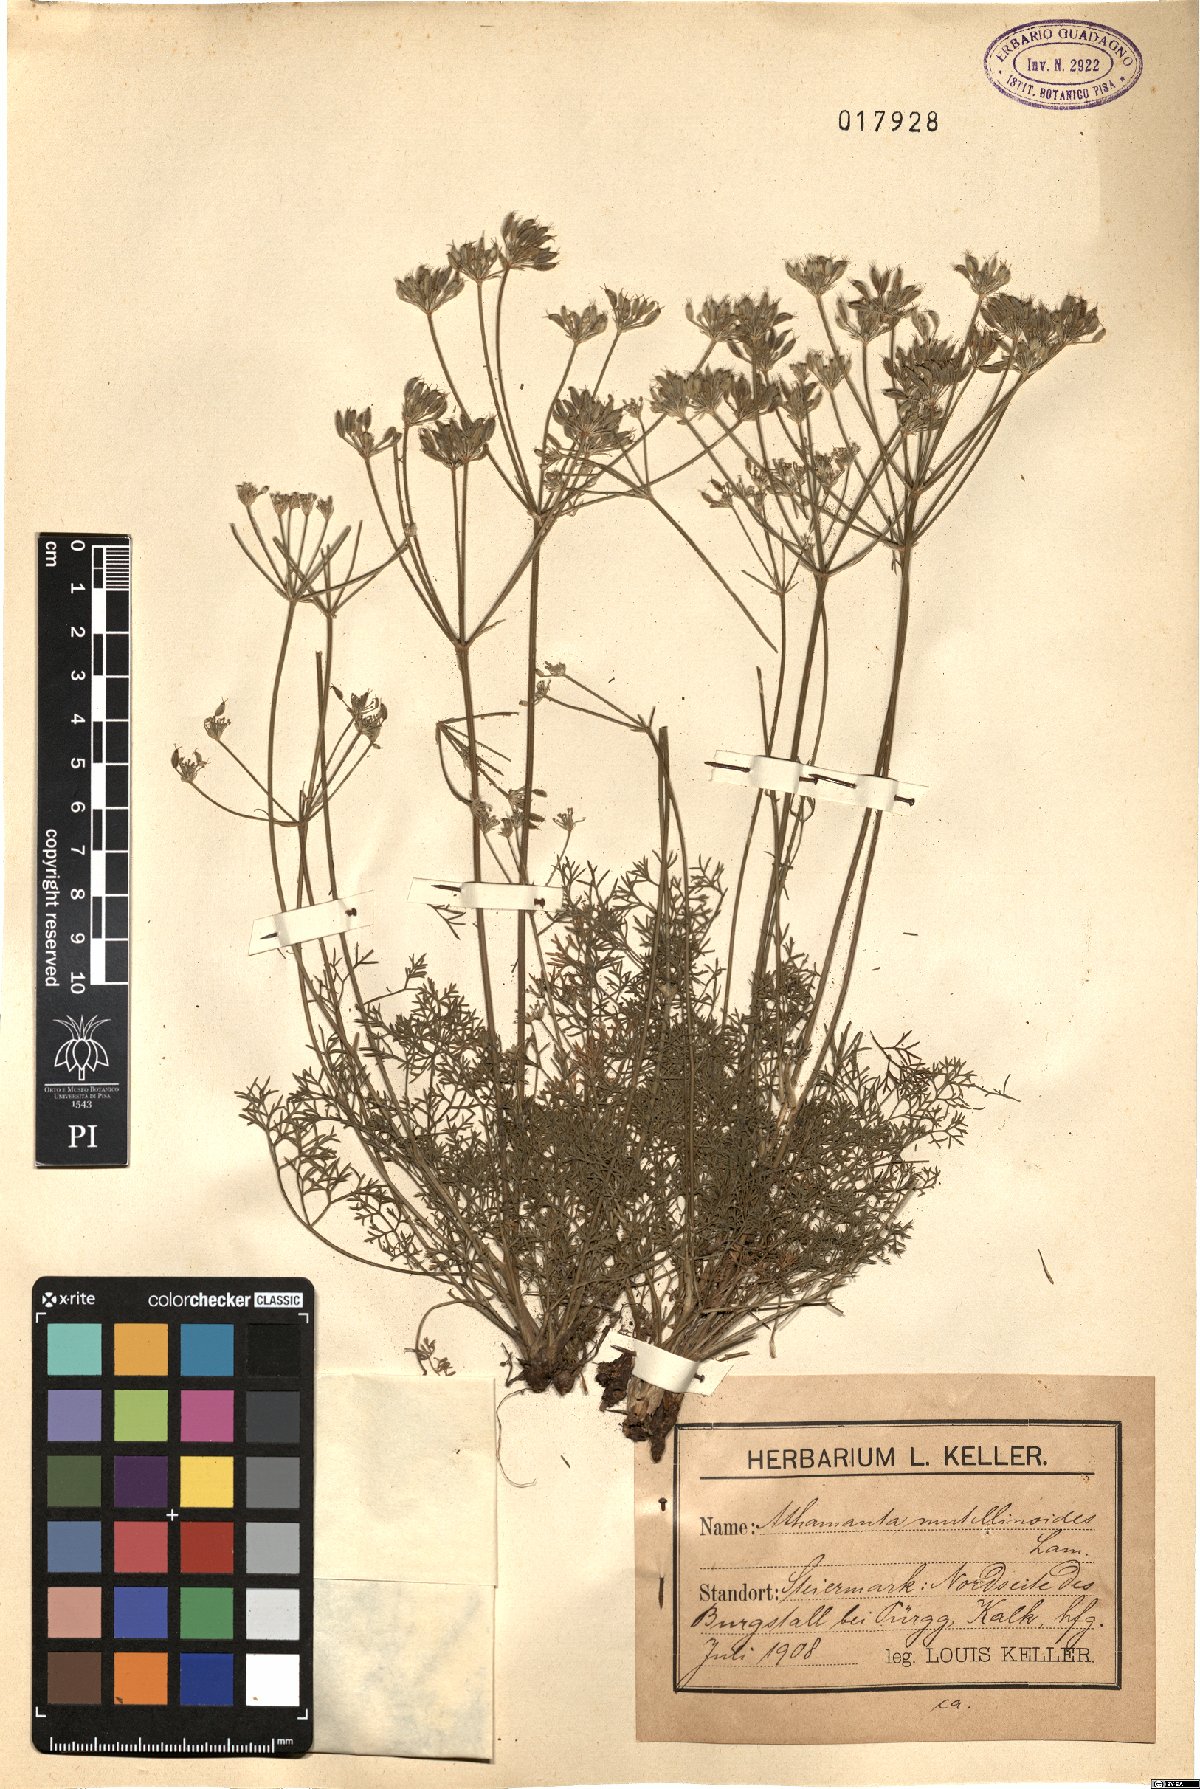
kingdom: Plantae
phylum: Tracheophyta
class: Magnoliopsida
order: Apiales
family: Apiaceae
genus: Athamanta
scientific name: Athamanta cretensis
